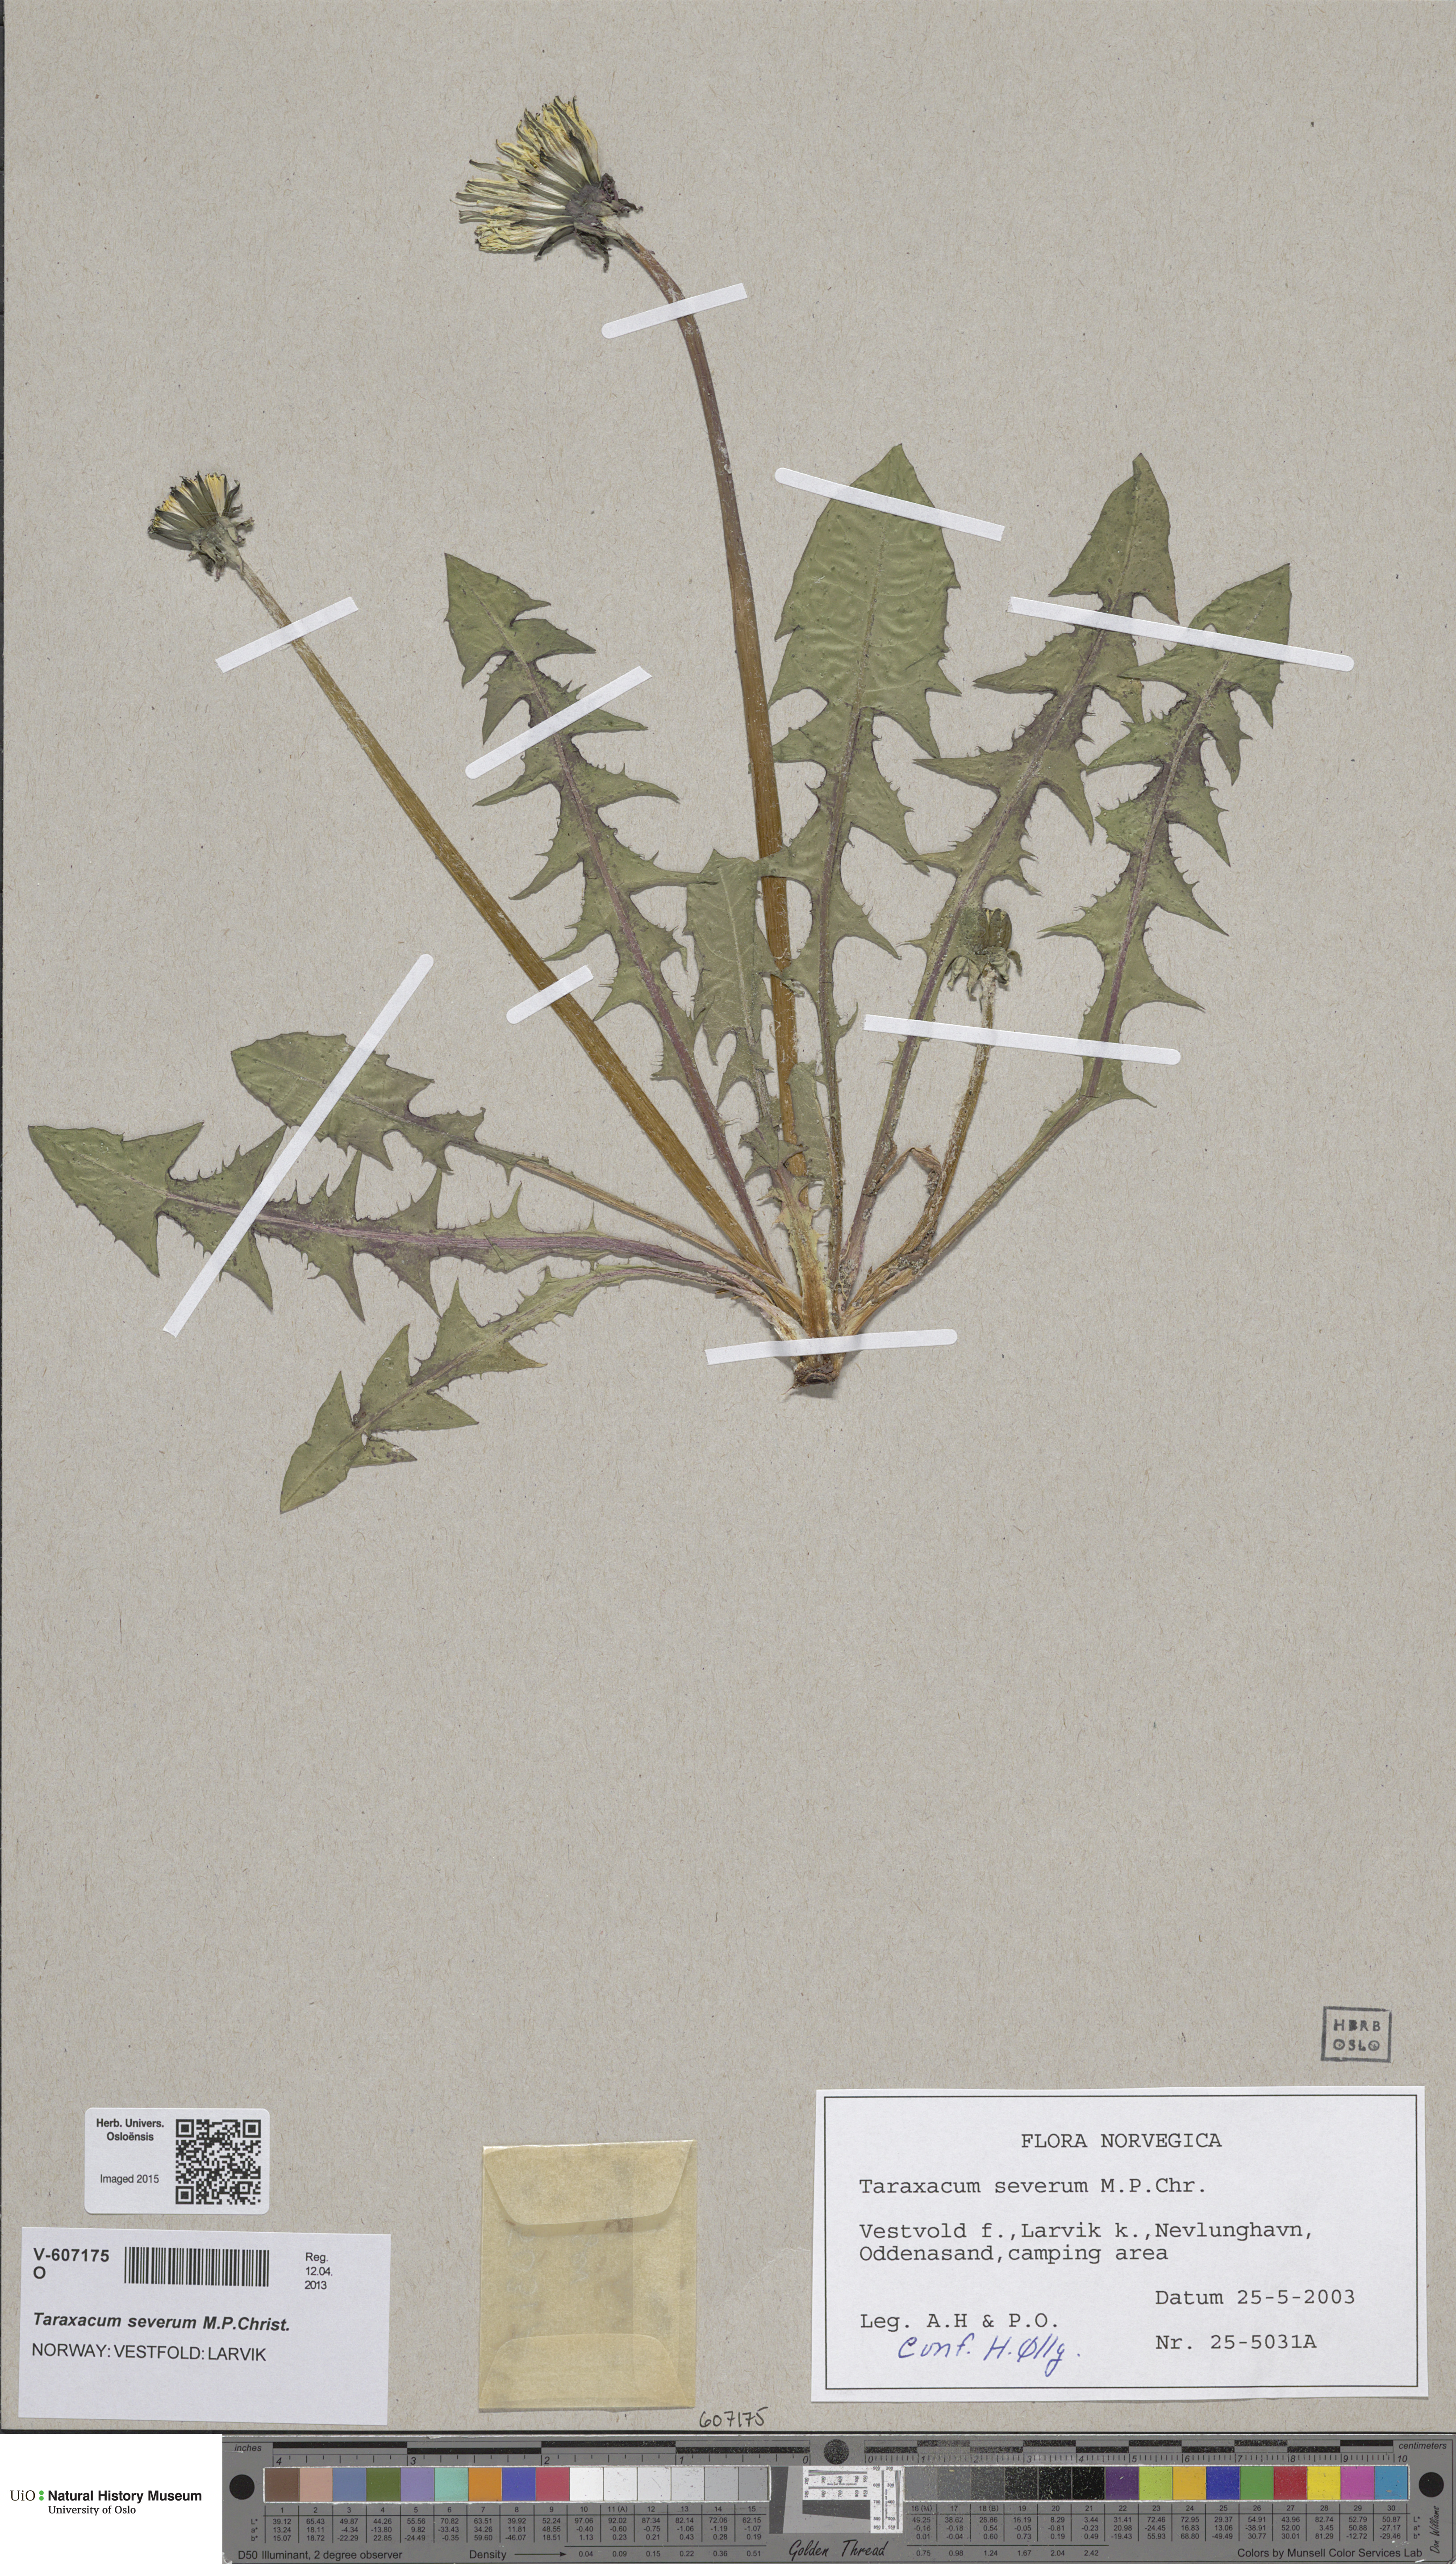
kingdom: Plantae
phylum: Tracheophyta
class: Magnoliopsida
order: Asterales
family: Asteraceae
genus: Taraxacum
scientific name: Taraxacum severum
